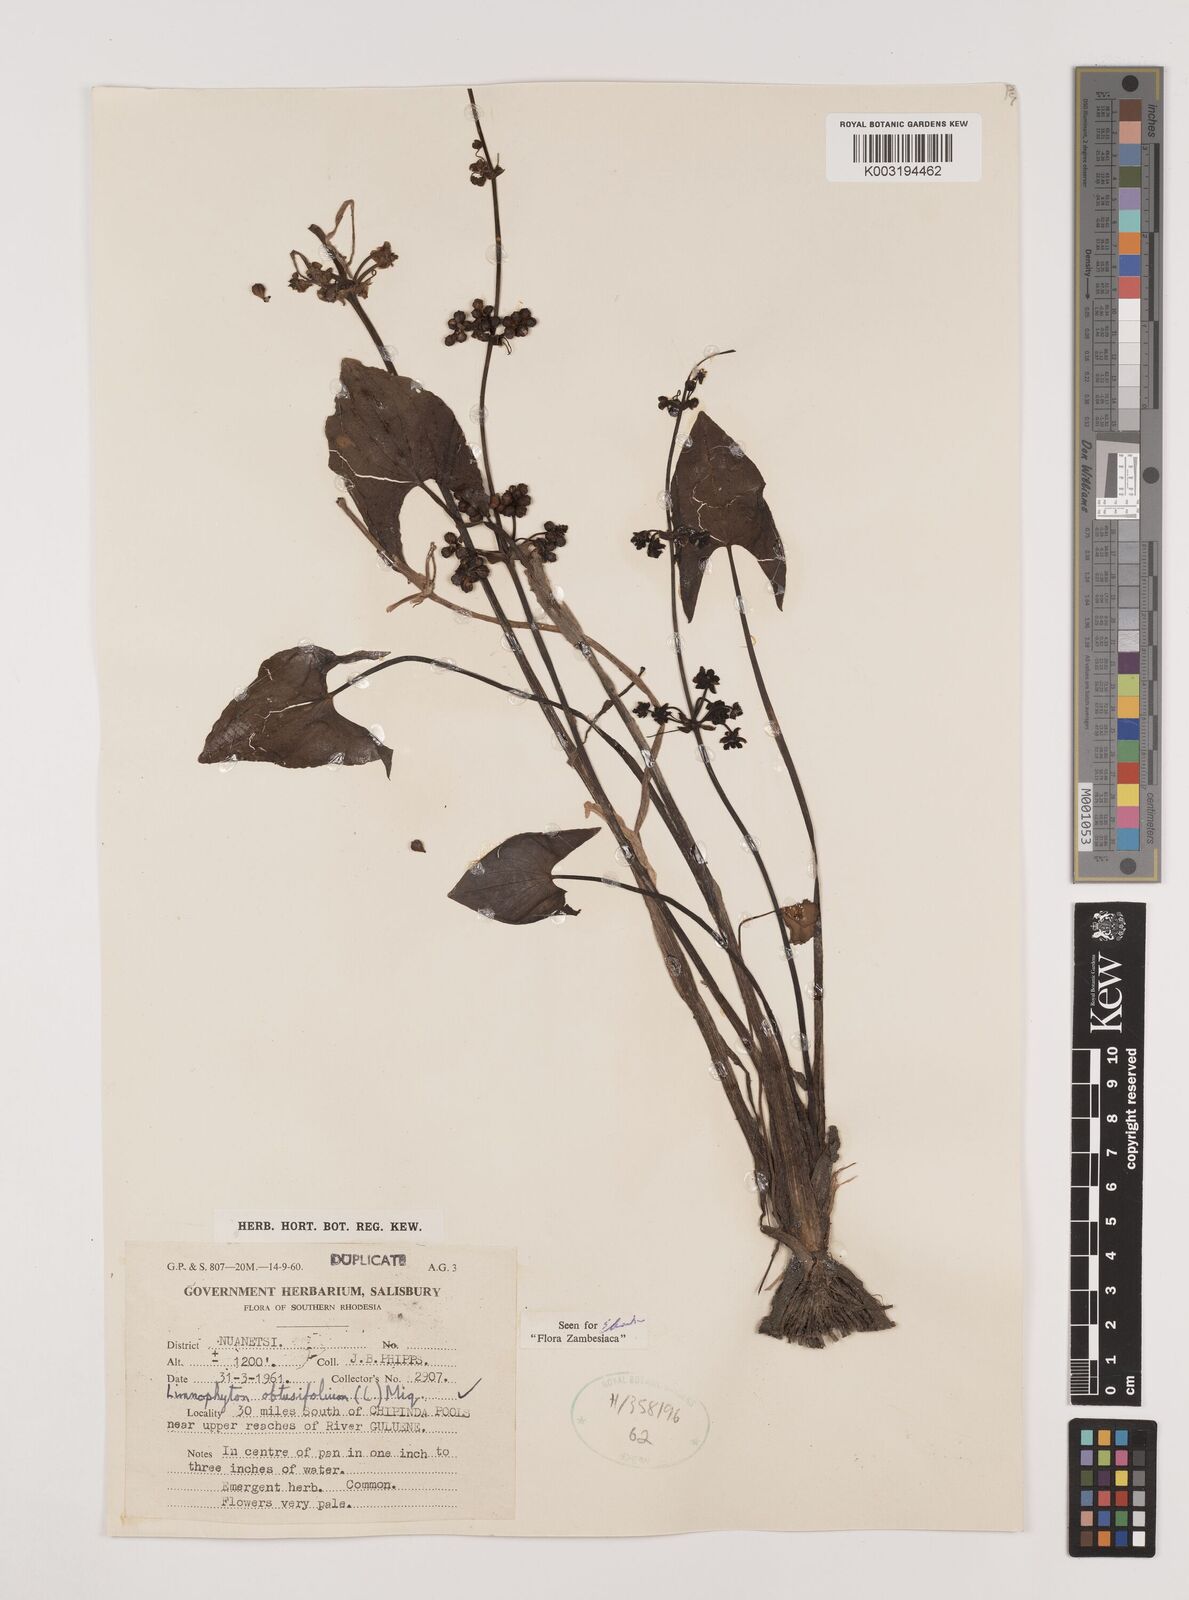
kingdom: Plantae
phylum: Tracheophyta
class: Liliopsida
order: Alismatales
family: Alismataceae
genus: Limnophyton
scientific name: Limnophyton obtusifolium
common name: Arrow head
